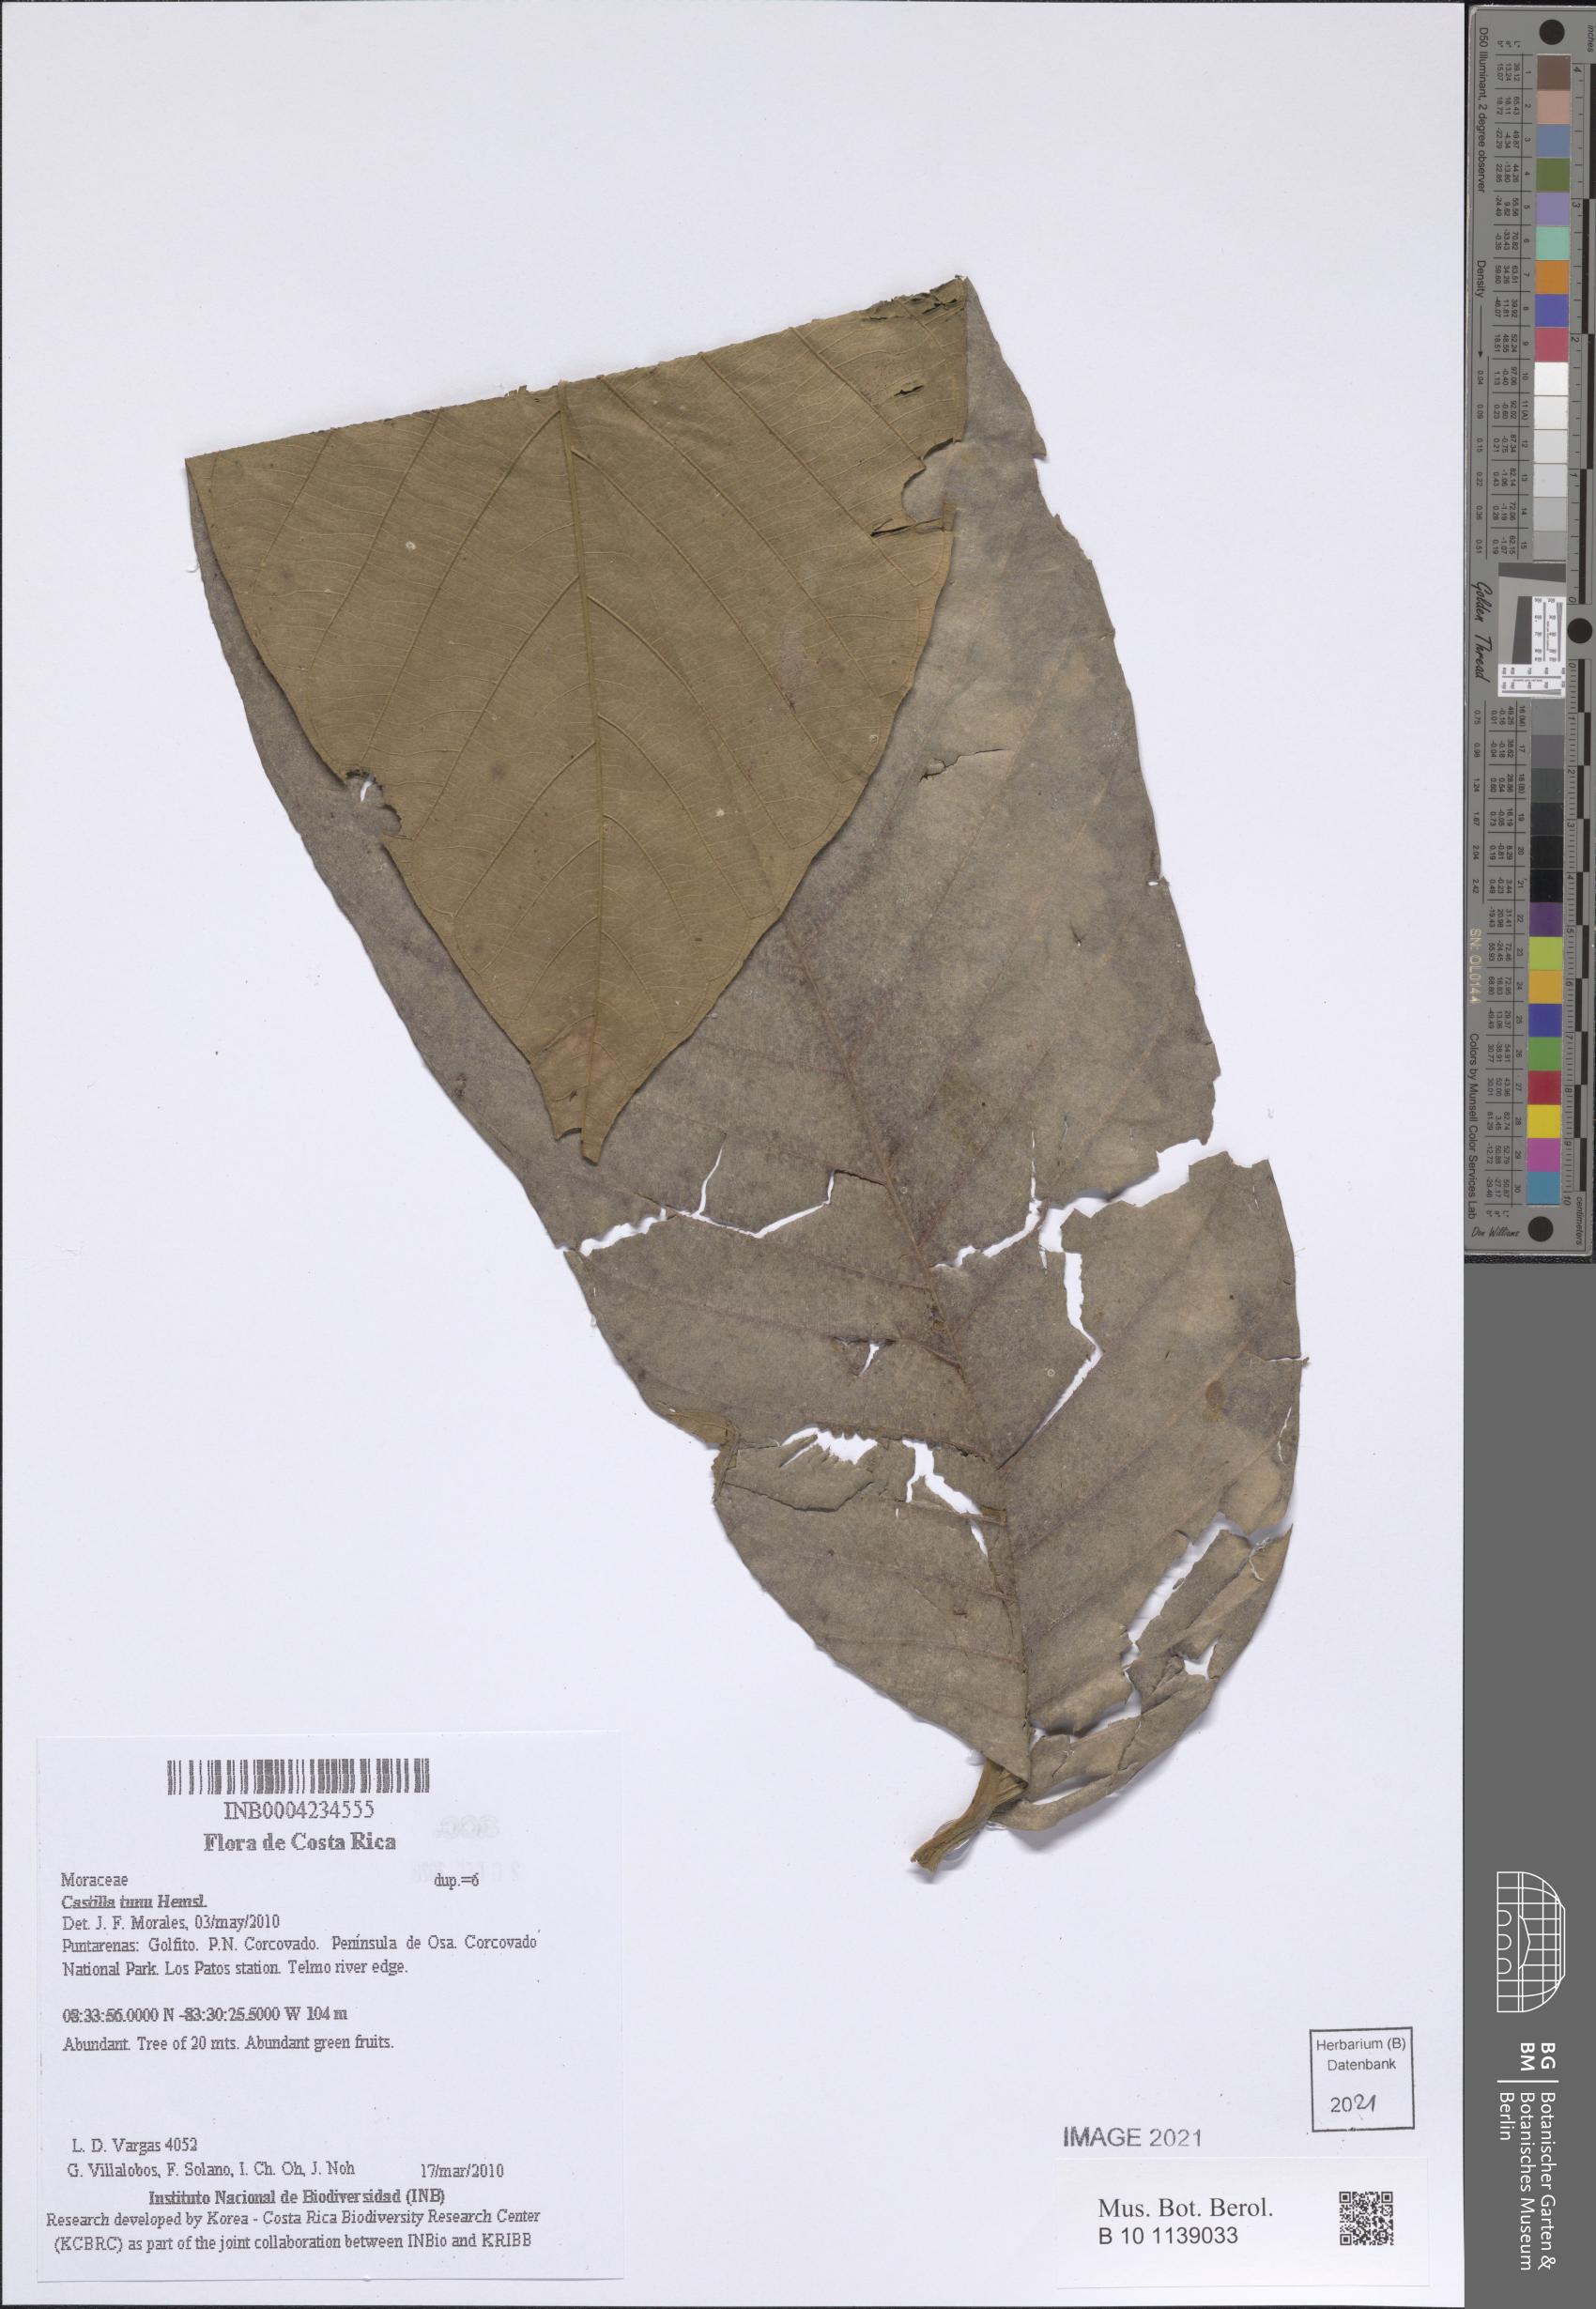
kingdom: Plantae
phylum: Tracheophyta
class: Magnoliopsida
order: Rosales
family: Moraceae
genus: Castilla
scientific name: Castilla tunu
